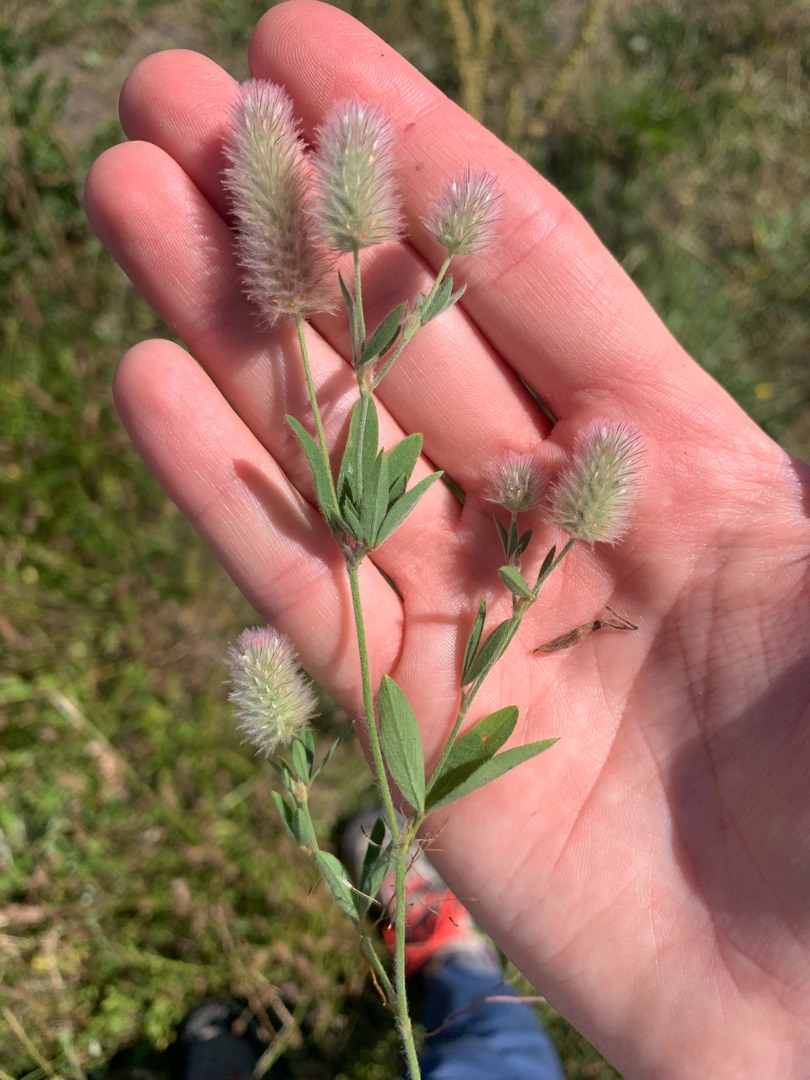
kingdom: Plantae
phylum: Tracheophyta
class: Magnoliopsida
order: Fabales
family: Fabaceae
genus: Trifolium
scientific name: Trifolium arvense
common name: Hare-kløver
